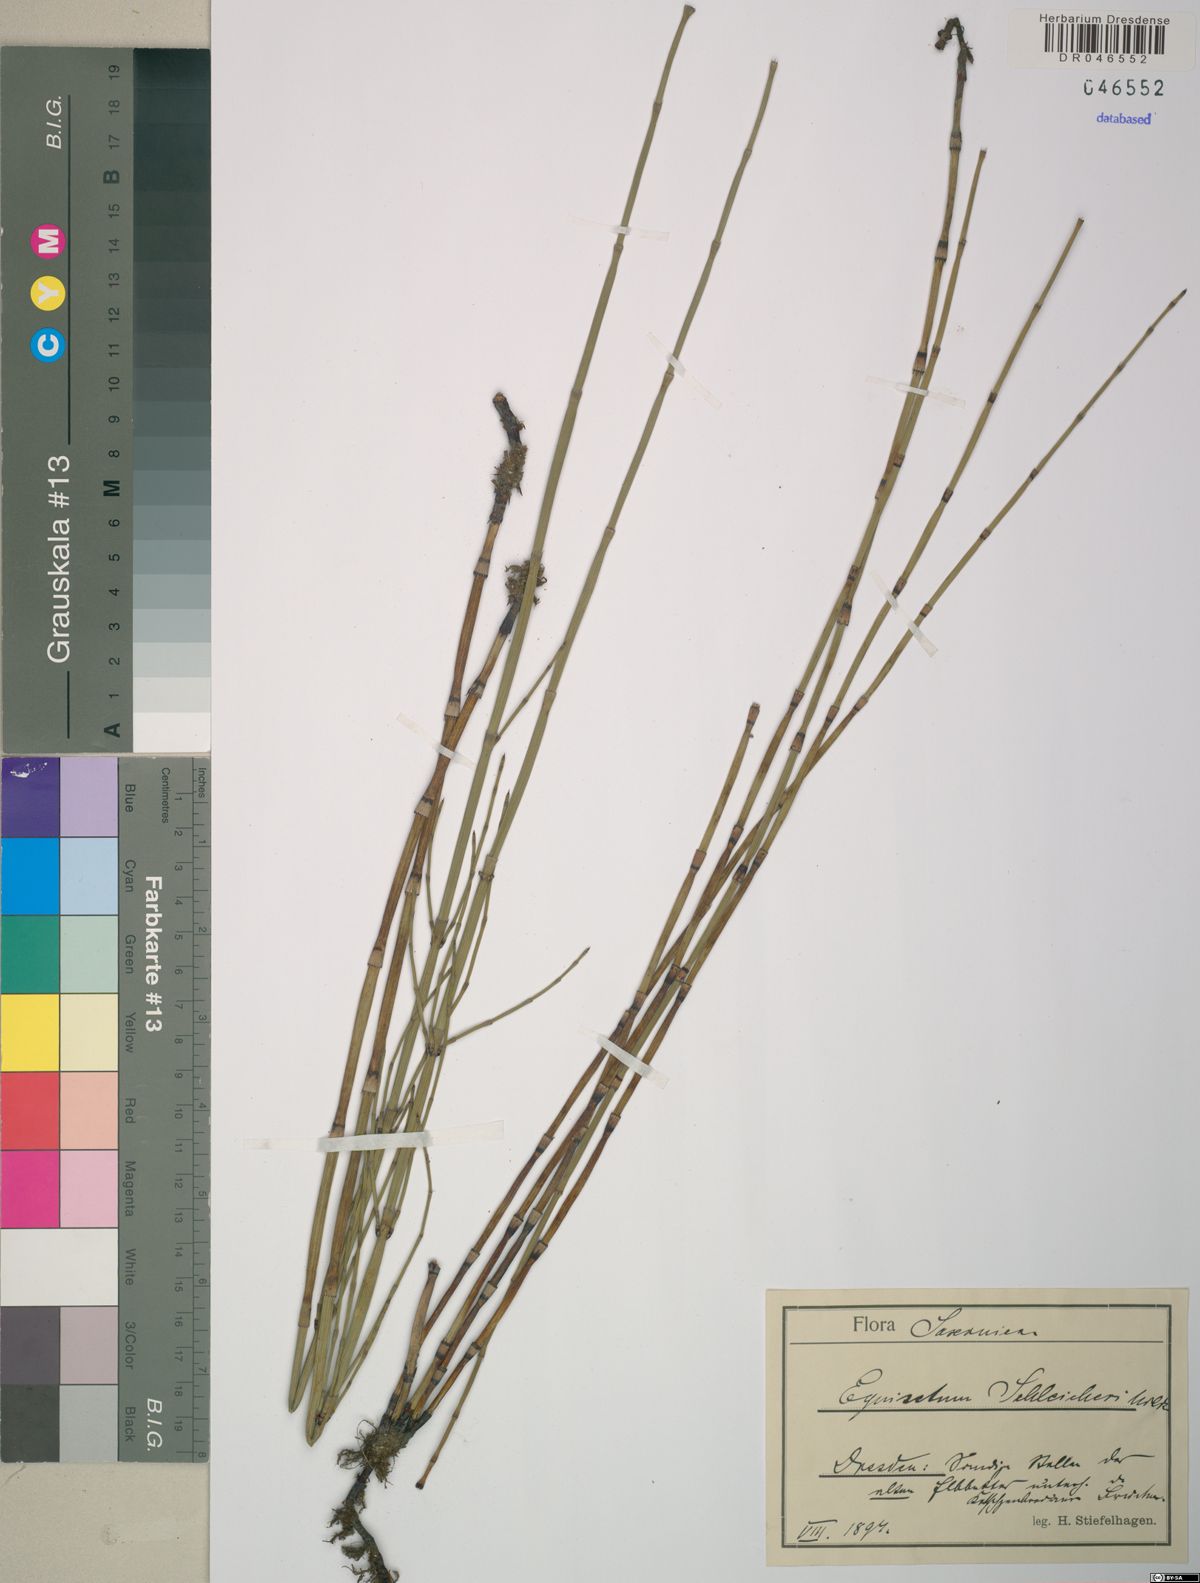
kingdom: Plantae
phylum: Tracheophyta
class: Polypodiopsida
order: Equisetales
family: Equisetaceae
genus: Equisetum
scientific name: Equisetum moorei
